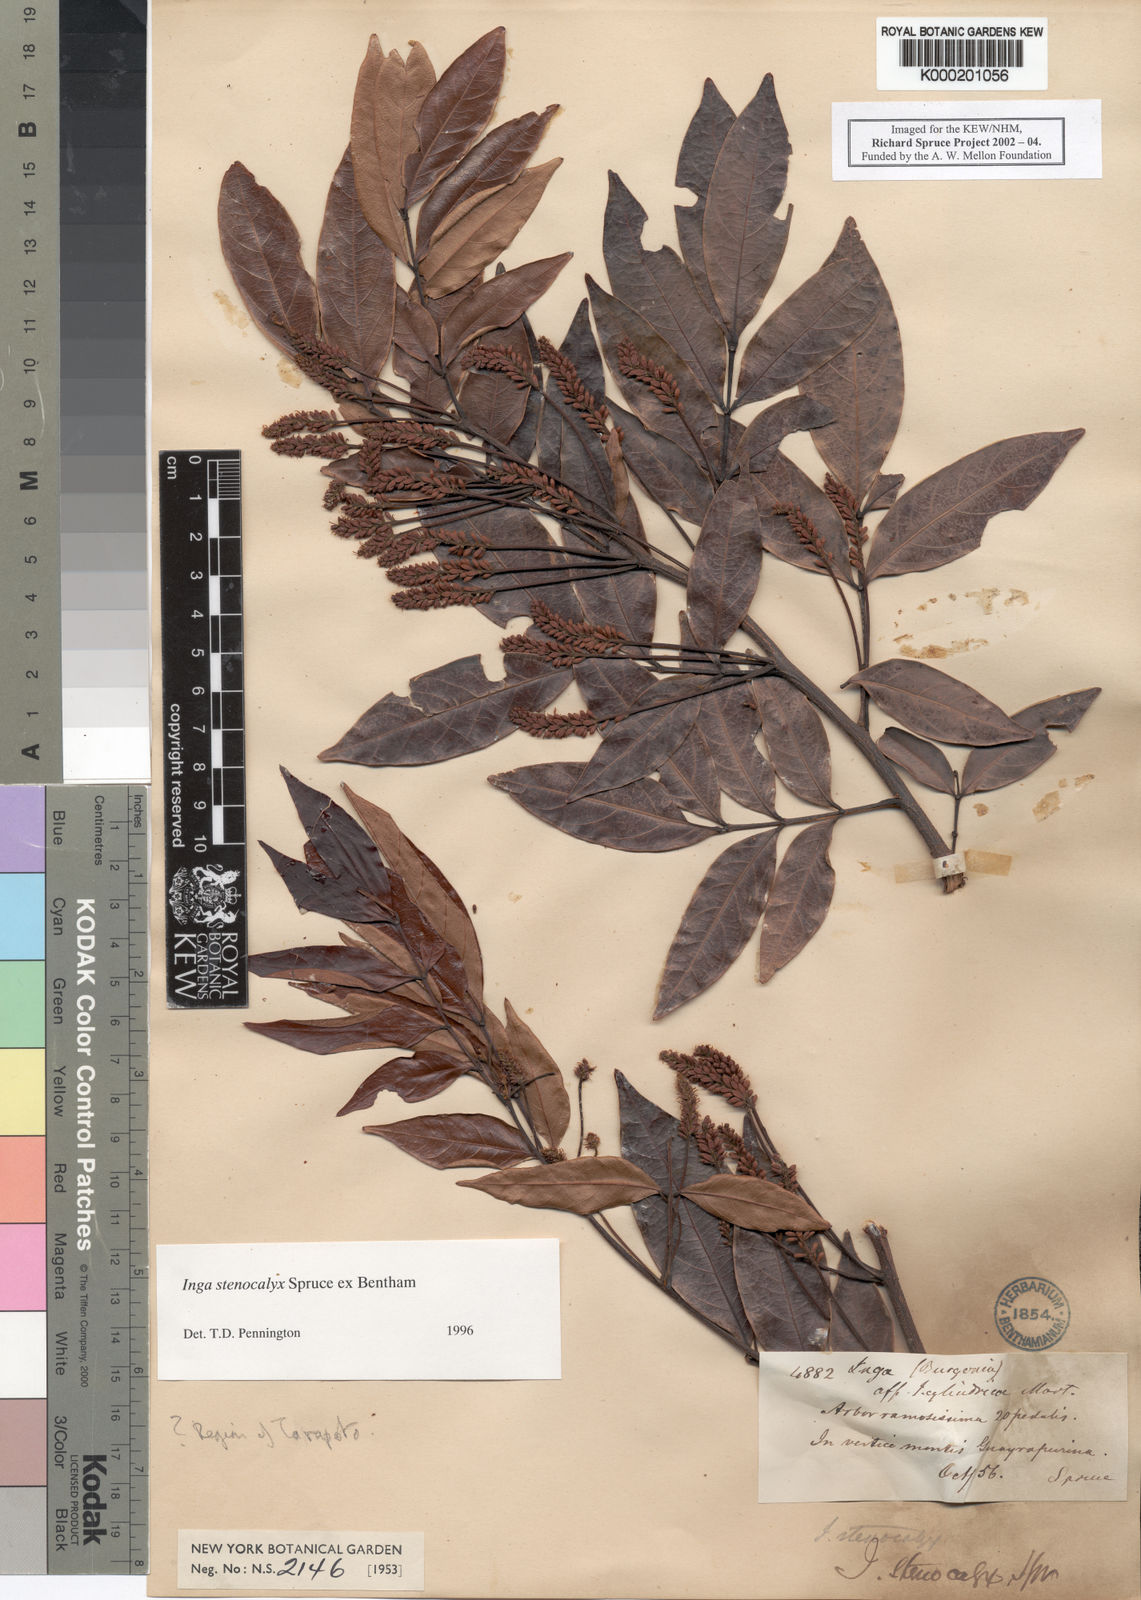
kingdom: Plantae
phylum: Tracheophyta
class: Magnoliopsida
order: Fabales
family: Fabaceae
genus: Inga
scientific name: Inga stenocalyx
